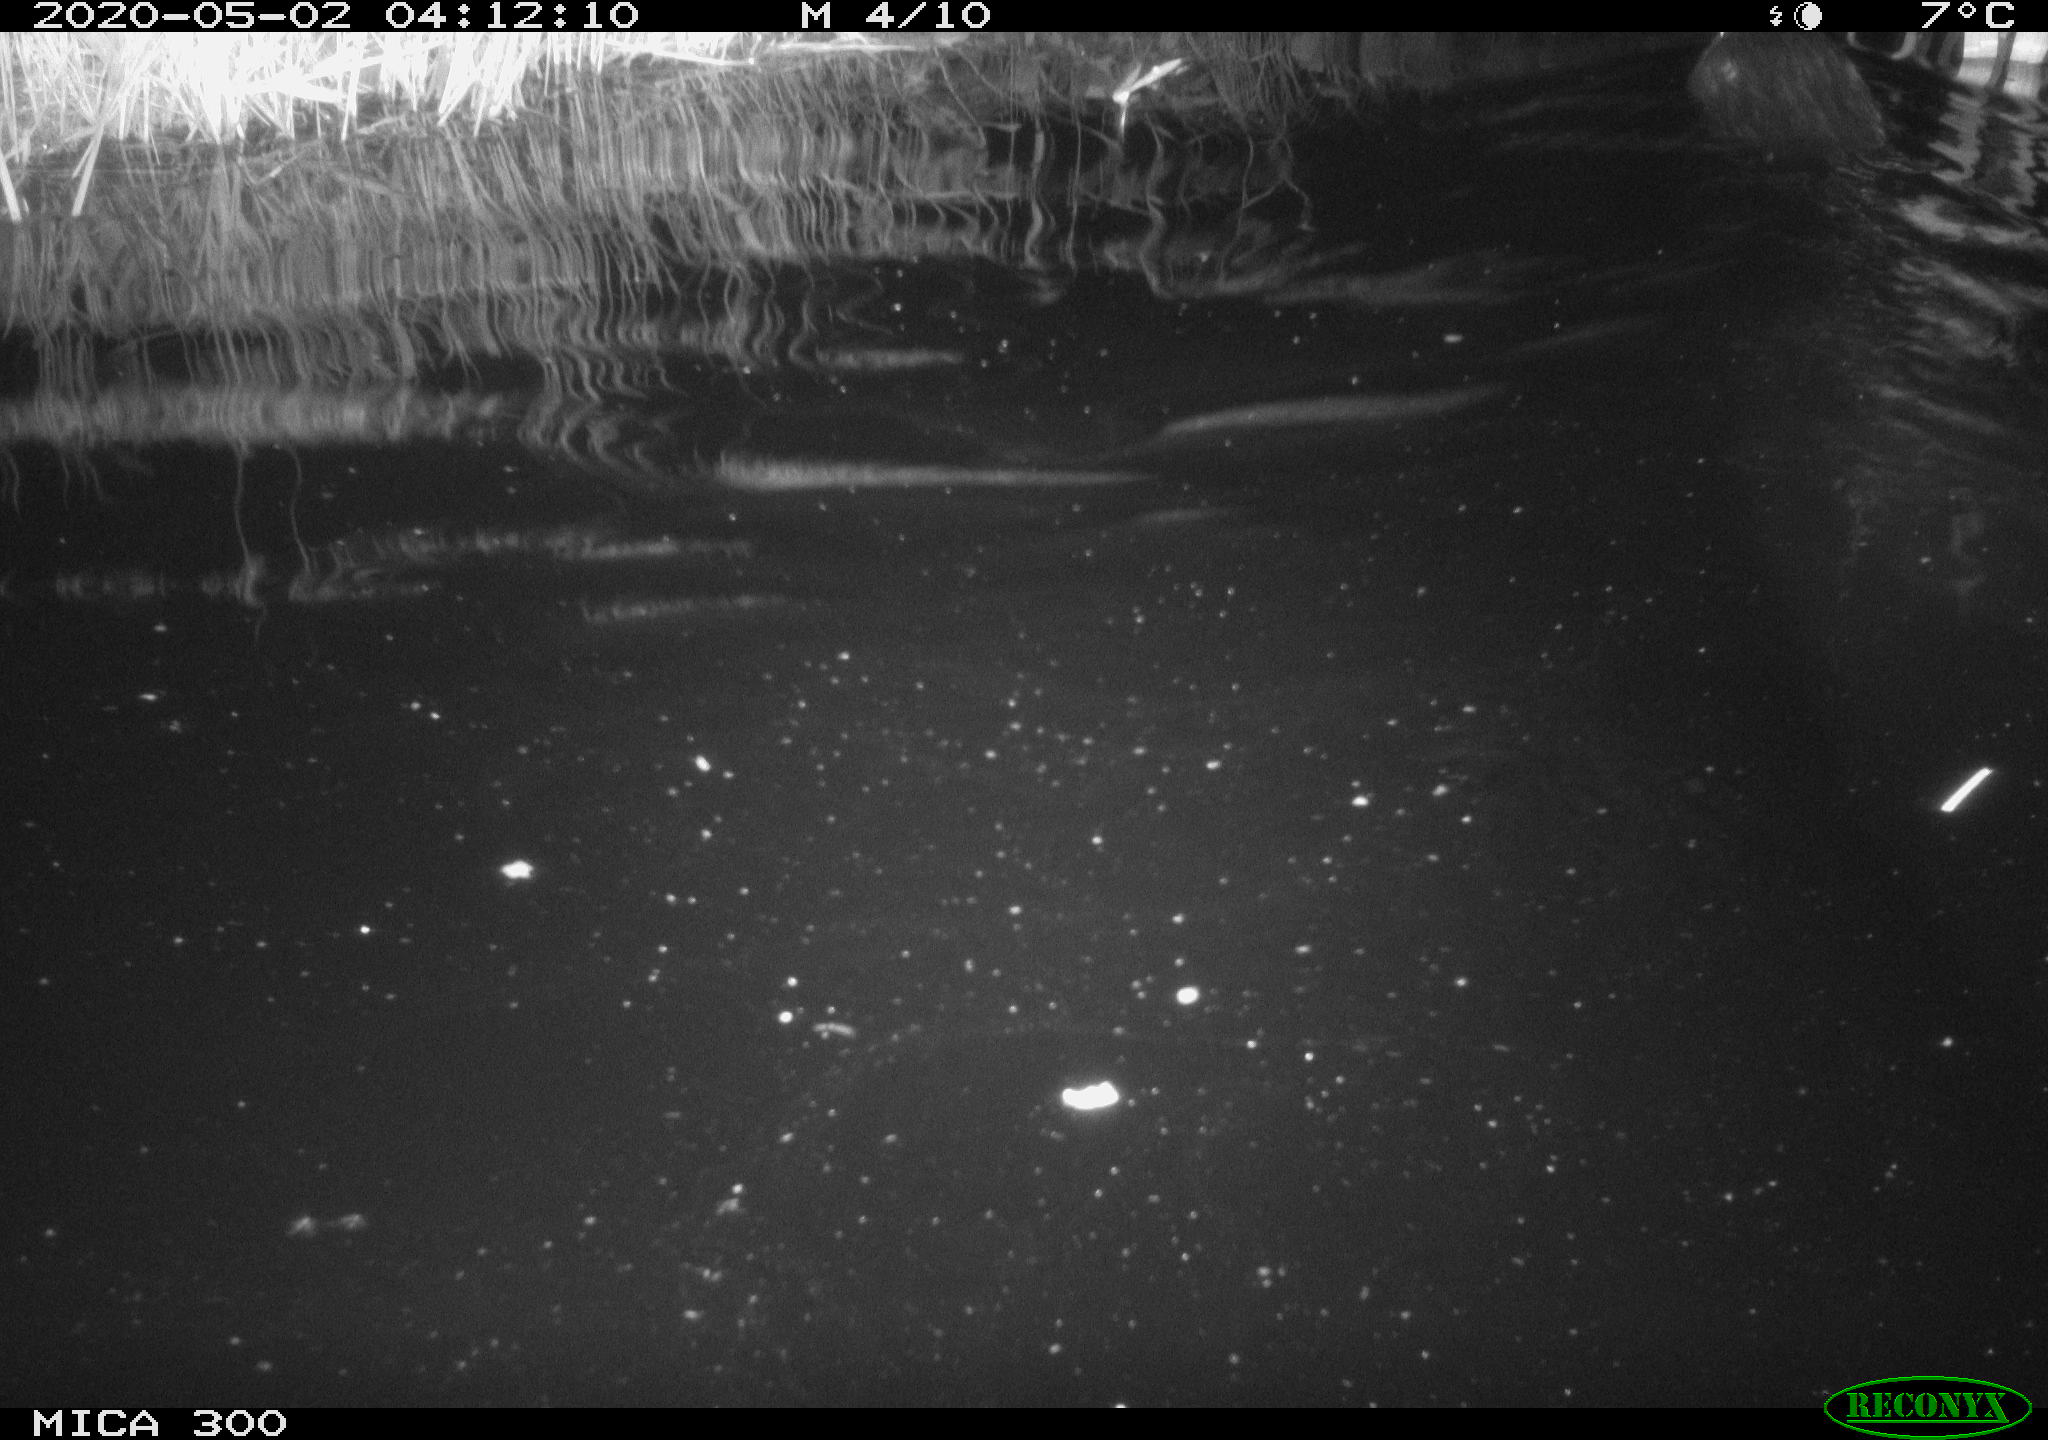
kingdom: Animalia
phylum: Chordata
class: Mammalia
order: Rodentia
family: Castoridae
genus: Castor
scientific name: Castor fiber
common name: Eurasian beaver
